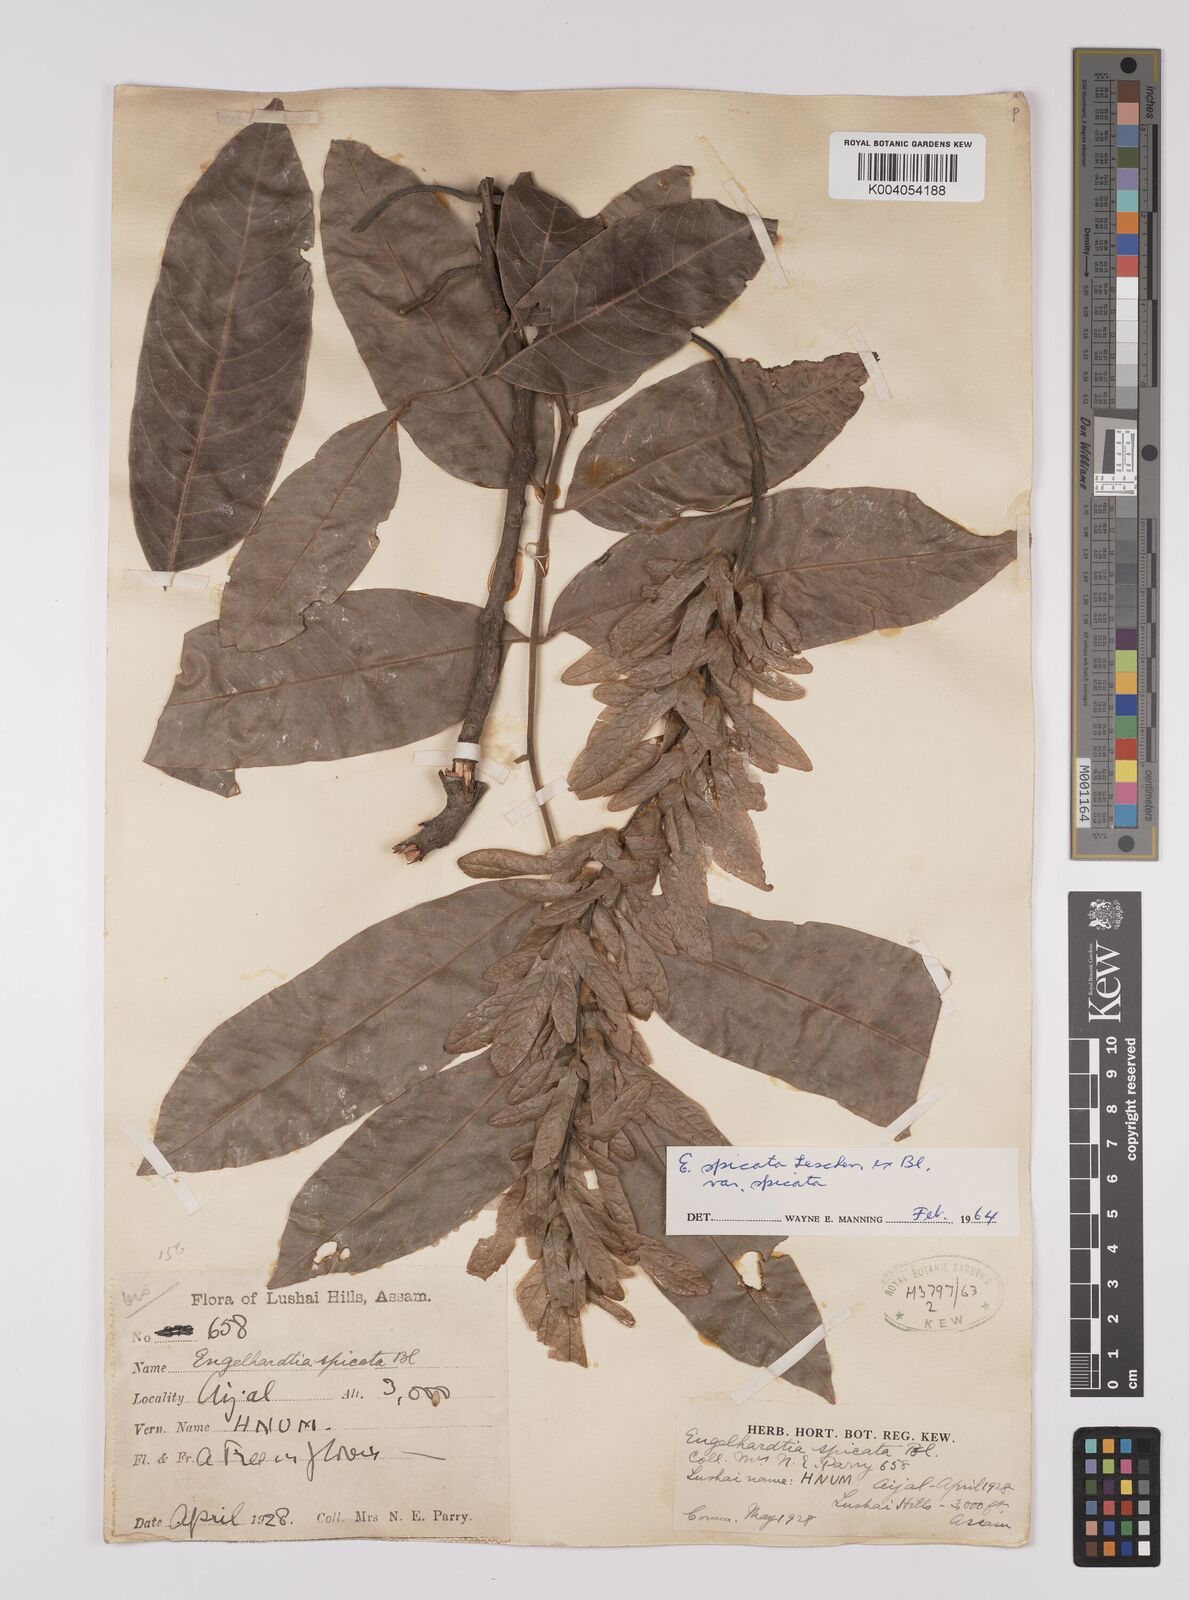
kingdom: Plantae
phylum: Tracheophyta
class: Magnoliopsida
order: Fagales
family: Juglandaceae
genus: Engelhardia
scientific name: Engelhardia spicata
